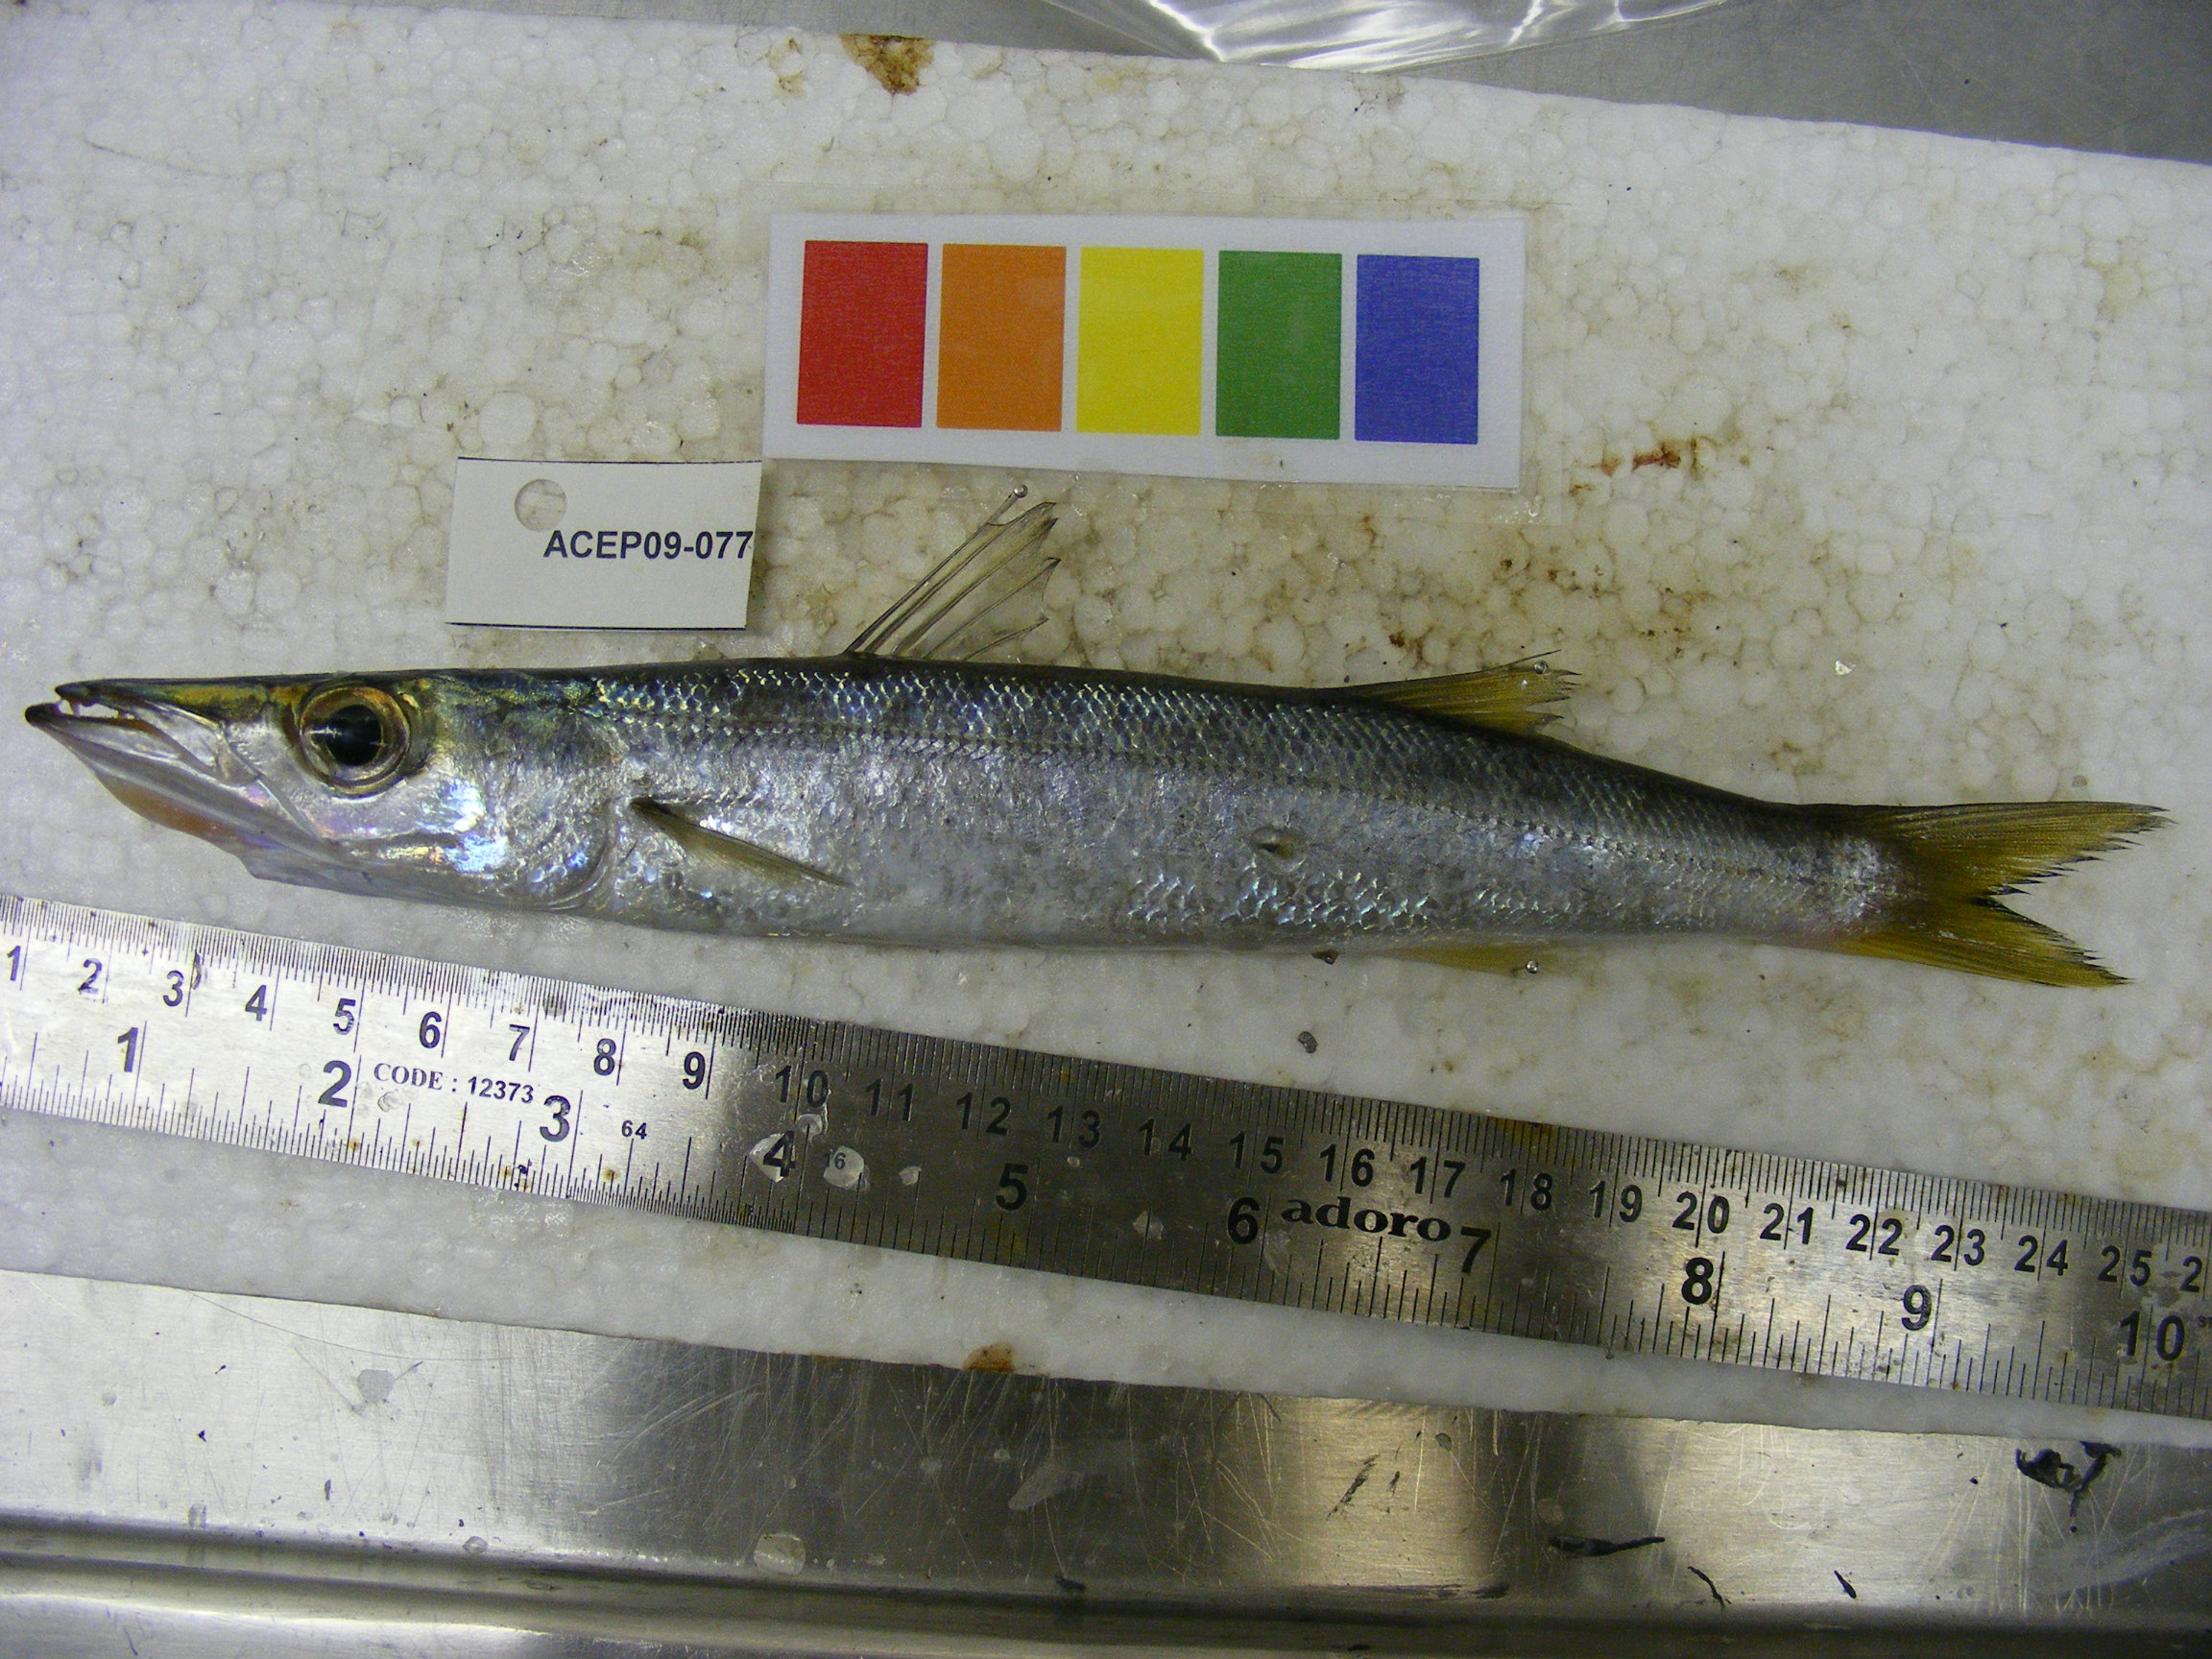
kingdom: Animalia
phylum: Chordata
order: Perciformes
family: Sphyraenidae
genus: Sphyraena
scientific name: Sphyraena chrysotaenia
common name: Yellowstripe barracuda
